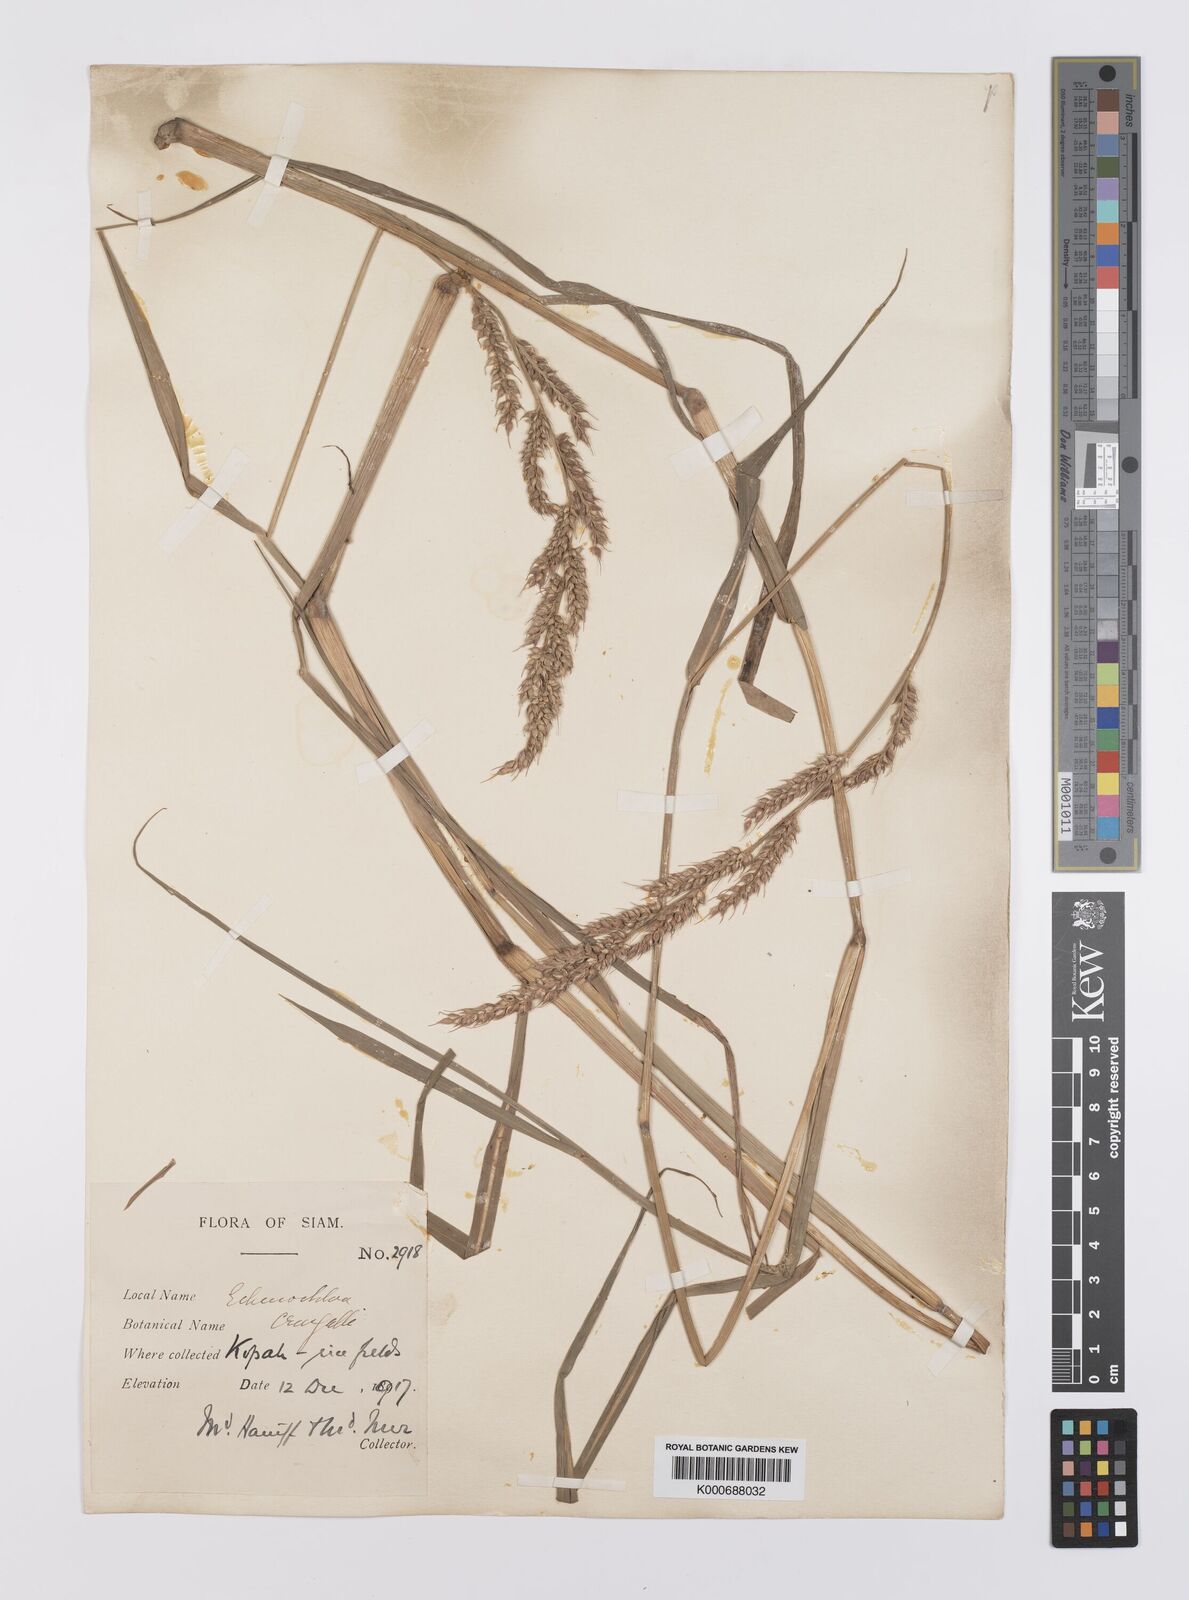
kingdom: Plantae
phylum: Tracheophyta
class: Liliopsida
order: Poales
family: Poaceae
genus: Echinochloa
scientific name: Echinochloa picta
